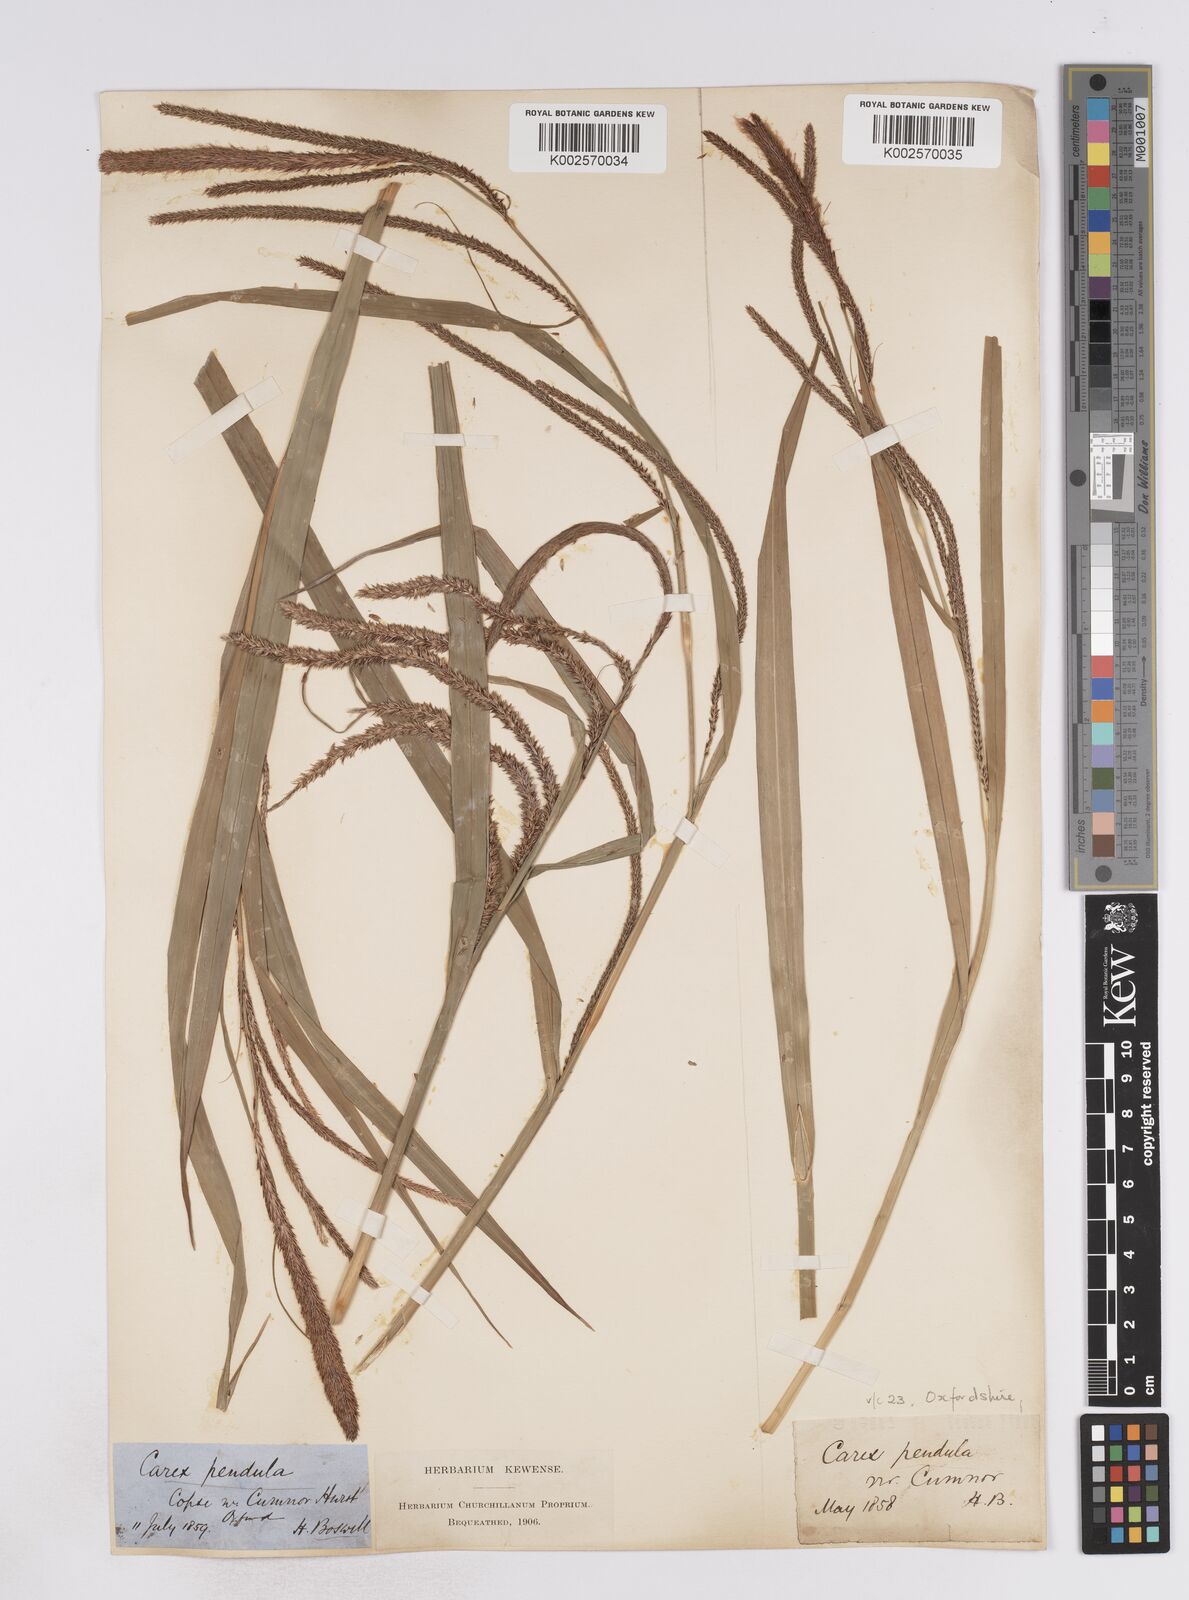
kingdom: Plantae
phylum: Tracheophyta
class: Liliopsida
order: Poales
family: Cyperaceae
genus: Carex
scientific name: Carex pendula
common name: Pendulous sedge
